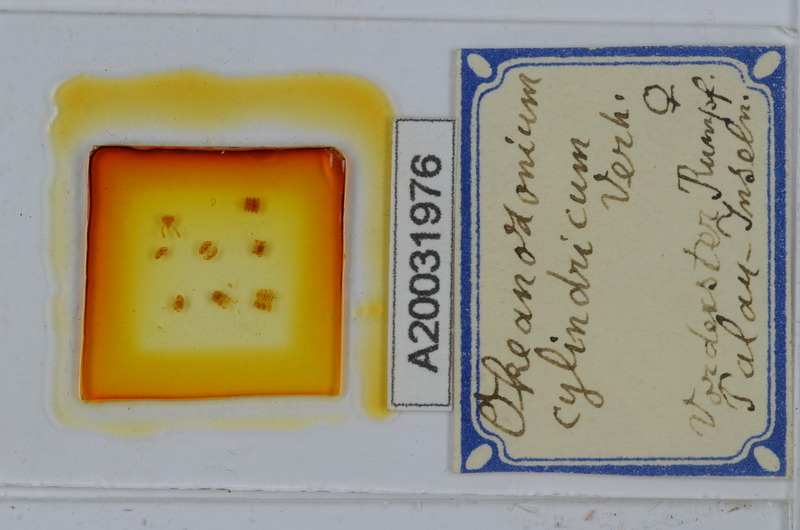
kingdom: Animalia
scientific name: Animalia
